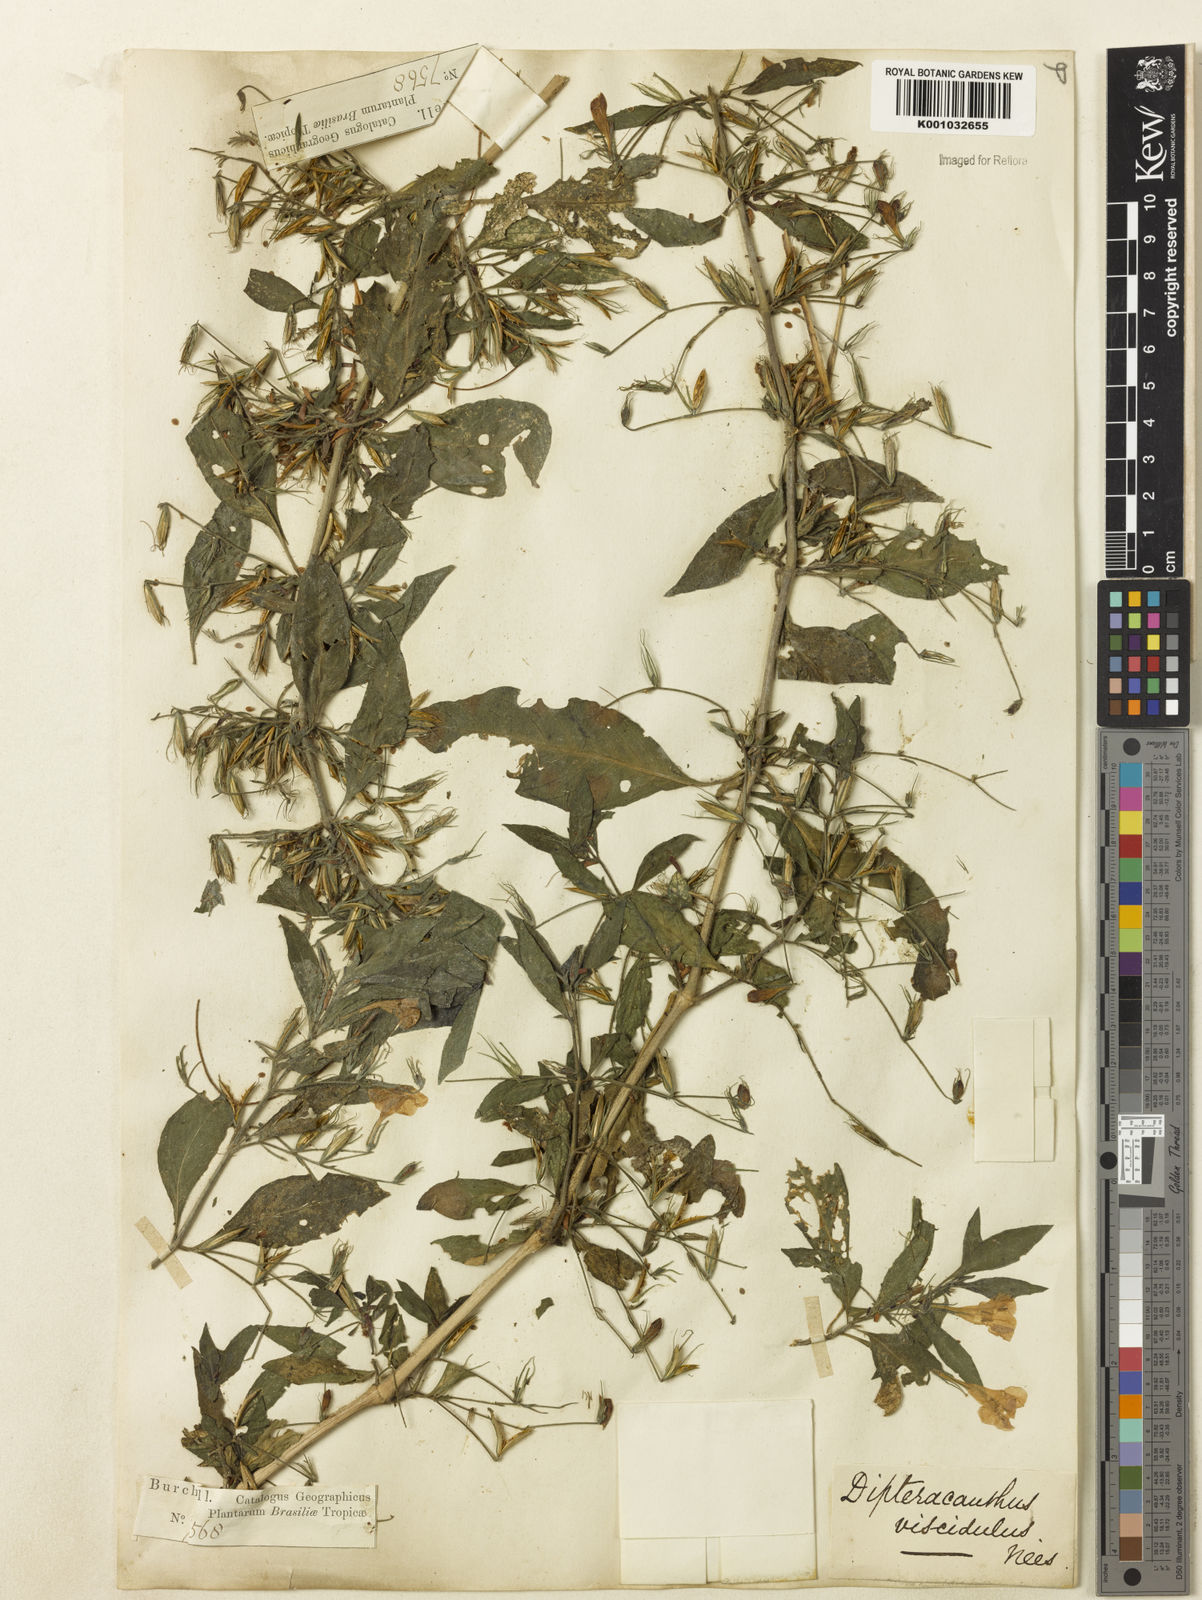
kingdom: Plantae
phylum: Tracheophyta
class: Magnoliopsida
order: Lamiales
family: Acanthaceae
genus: Ruellia
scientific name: Ruellia
